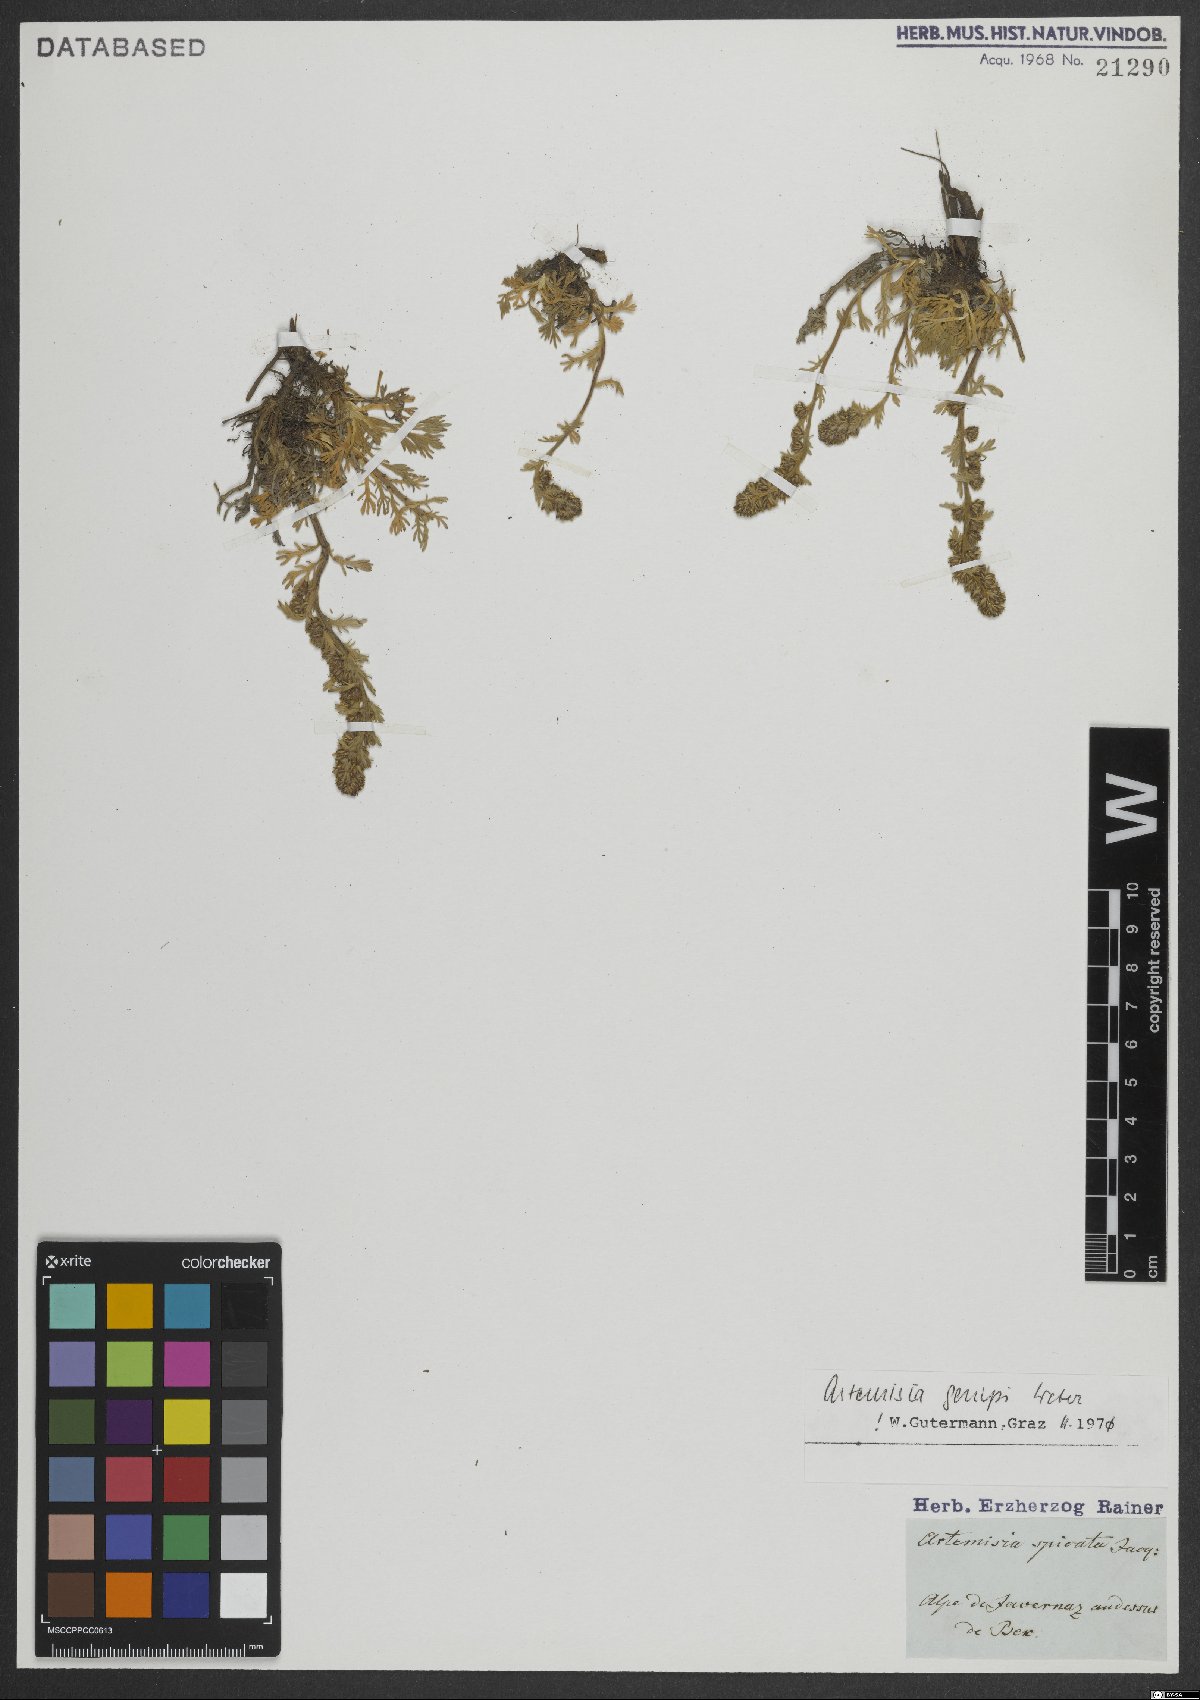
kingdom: Plantae
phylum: Tracheophyta
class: Magnoliopsida
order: Asterales
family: Asteraceae
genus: Artemisia
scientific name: Artemisia genipi
